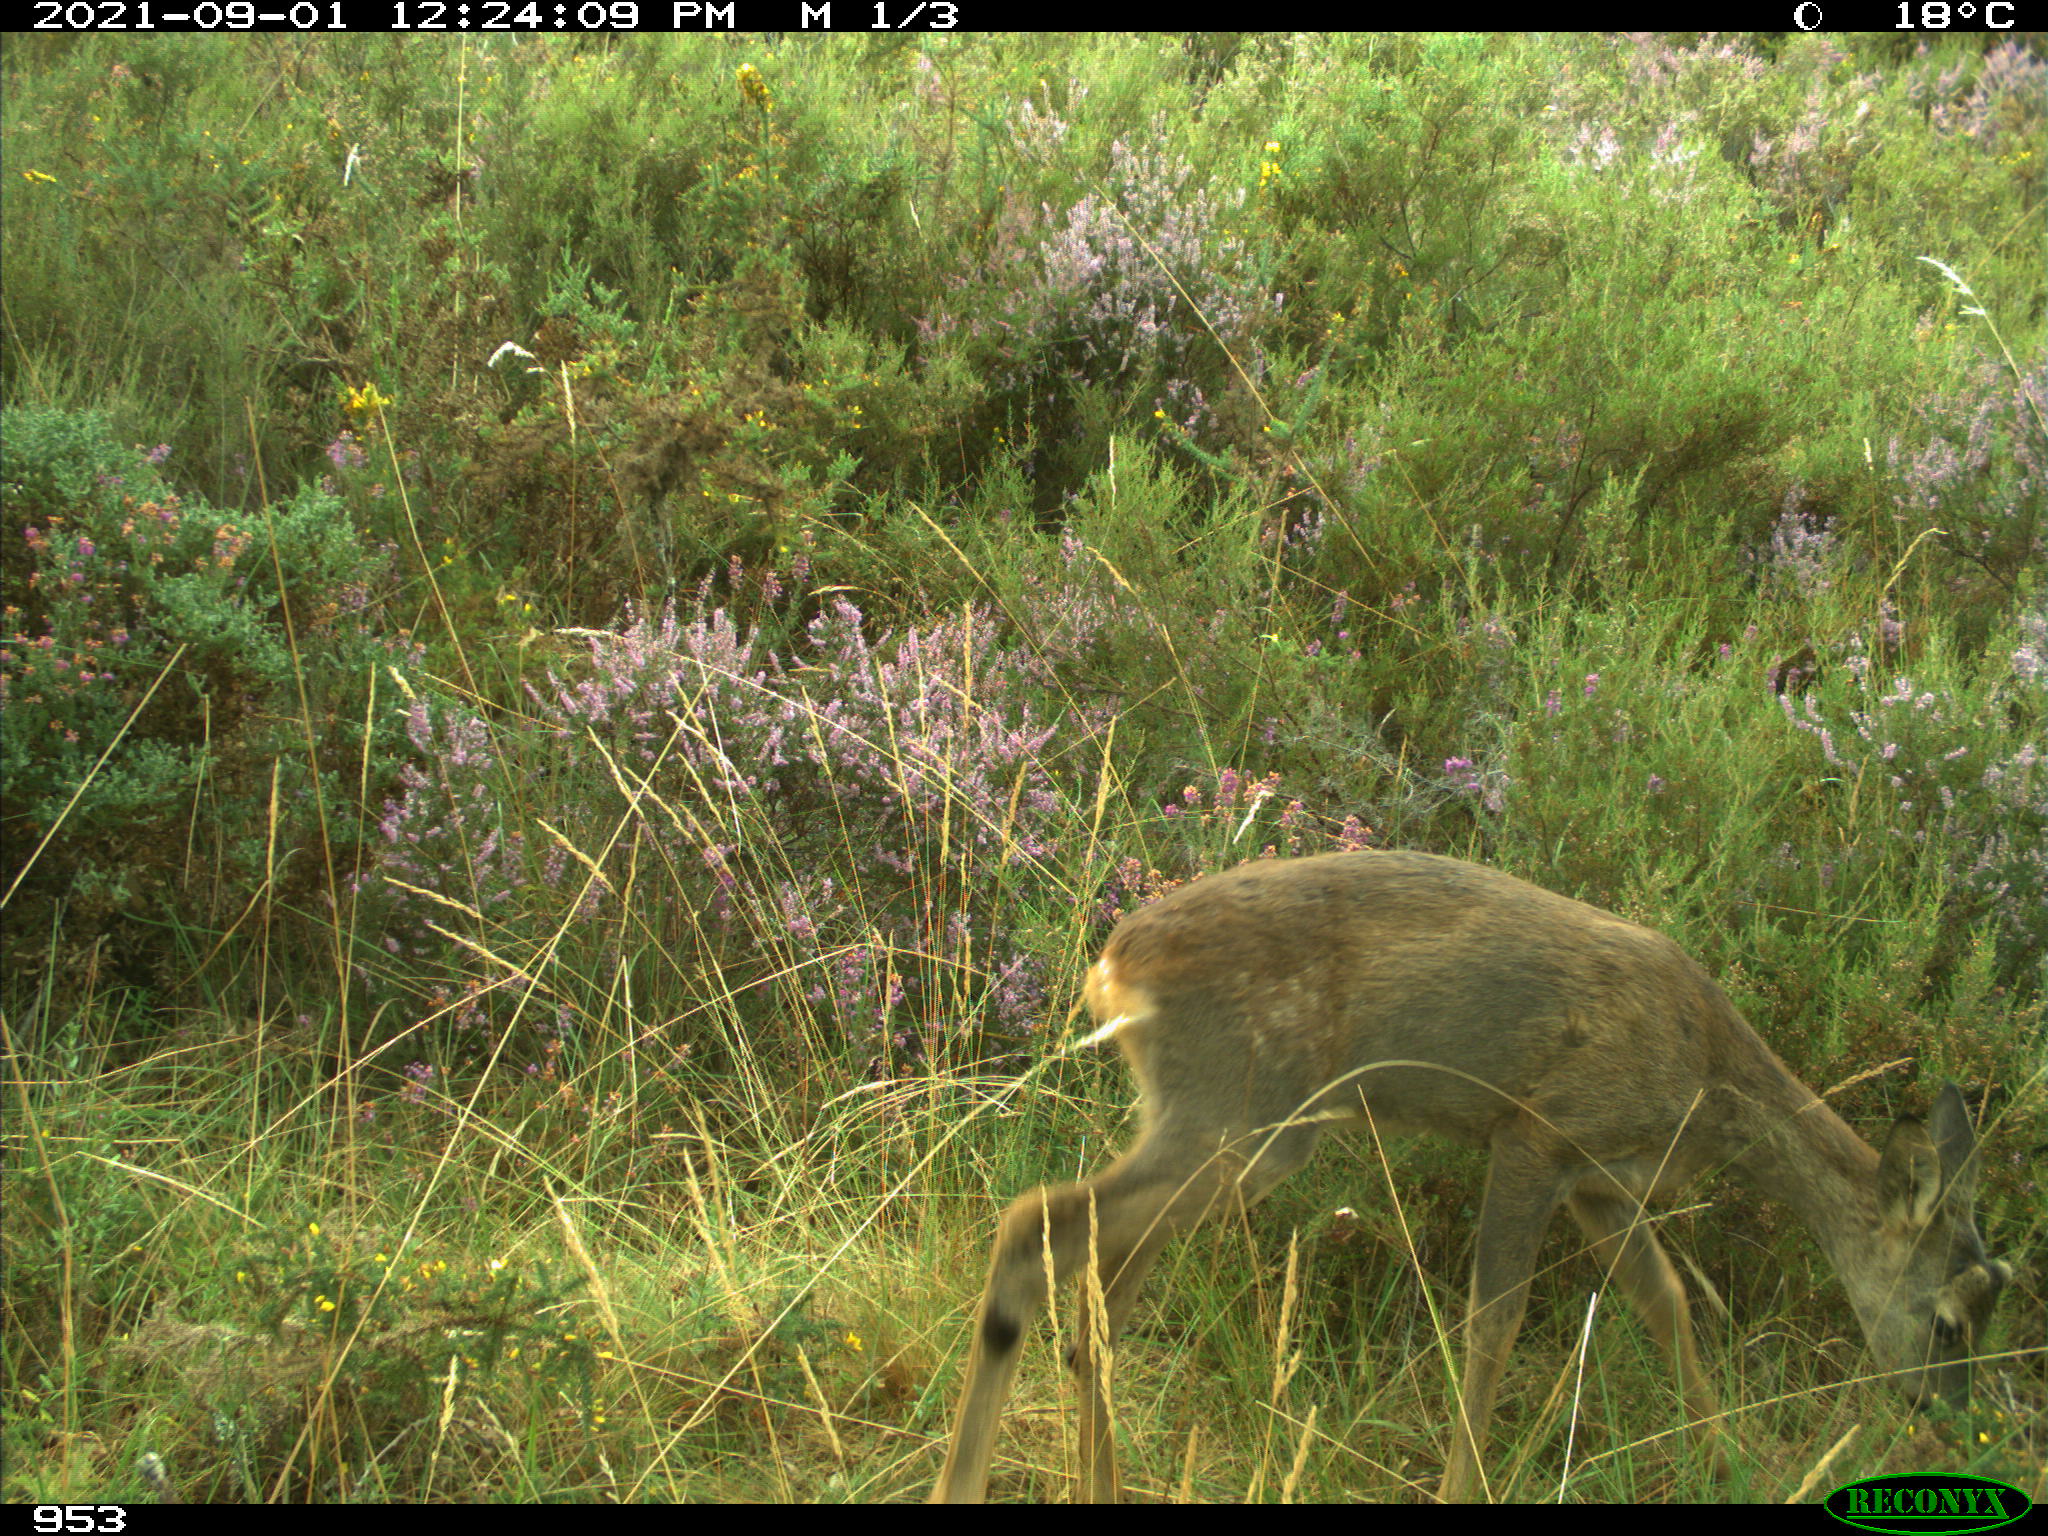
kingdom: Animalia
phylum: Chordata
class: Mammalia
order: Artiodactyla
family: Cervidae
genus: Capreolus
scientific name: Capreolus capreolus
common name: Western roe deer
